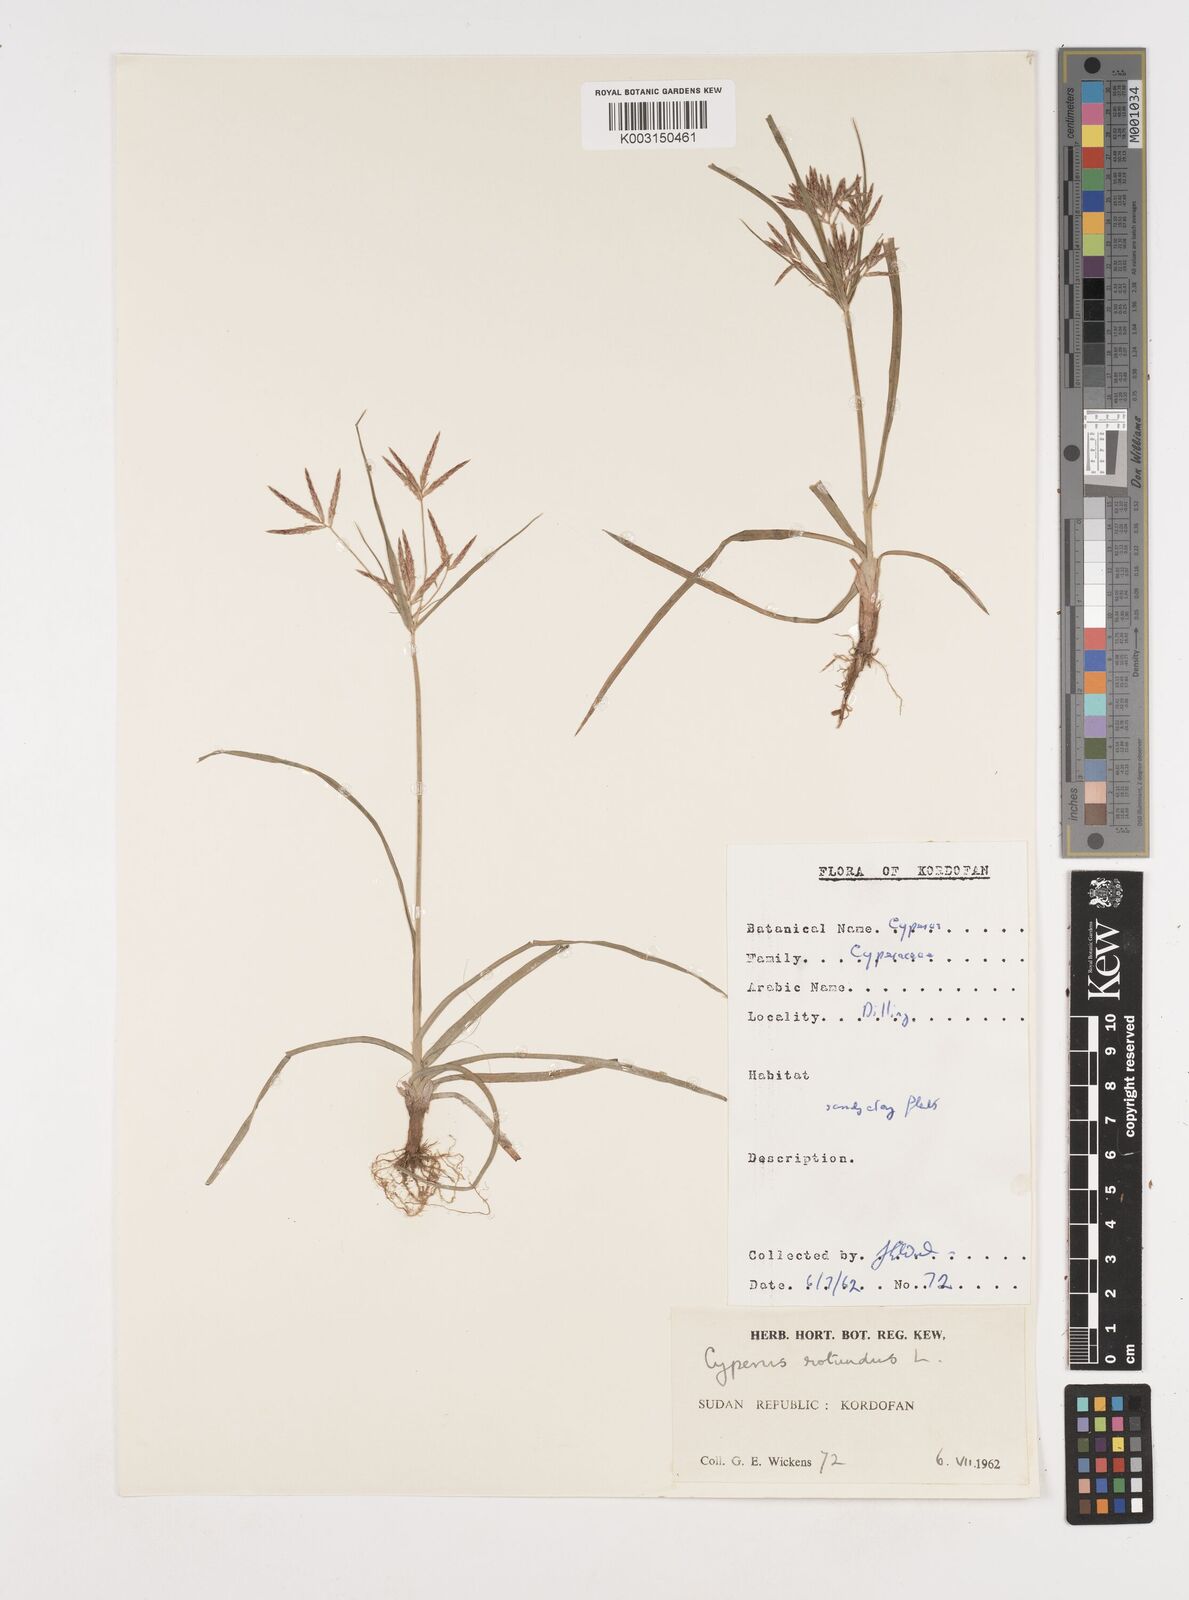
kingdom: Plantae
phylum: Tracheophyta
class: Liliopsida
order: Poales
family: Cyperaceae
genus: Cyperus
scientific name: Cyperus rotundus
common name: Nutgrass
